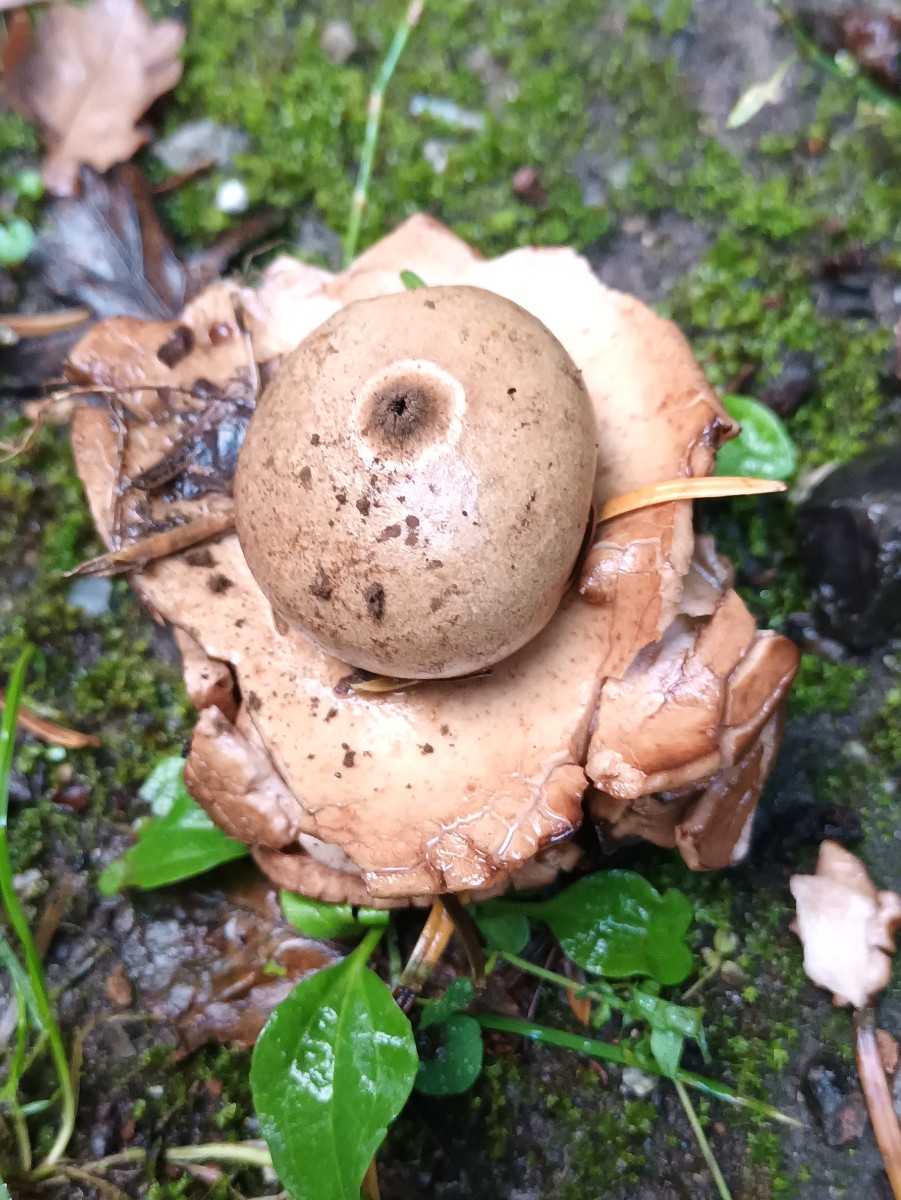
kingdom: Fungi
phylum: Basidiomycota
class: Agaricomycetes
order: Geastrales
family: Geastraceae
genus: Geastrum
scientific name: Geastrum michelianum
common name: kødet stjernebold
